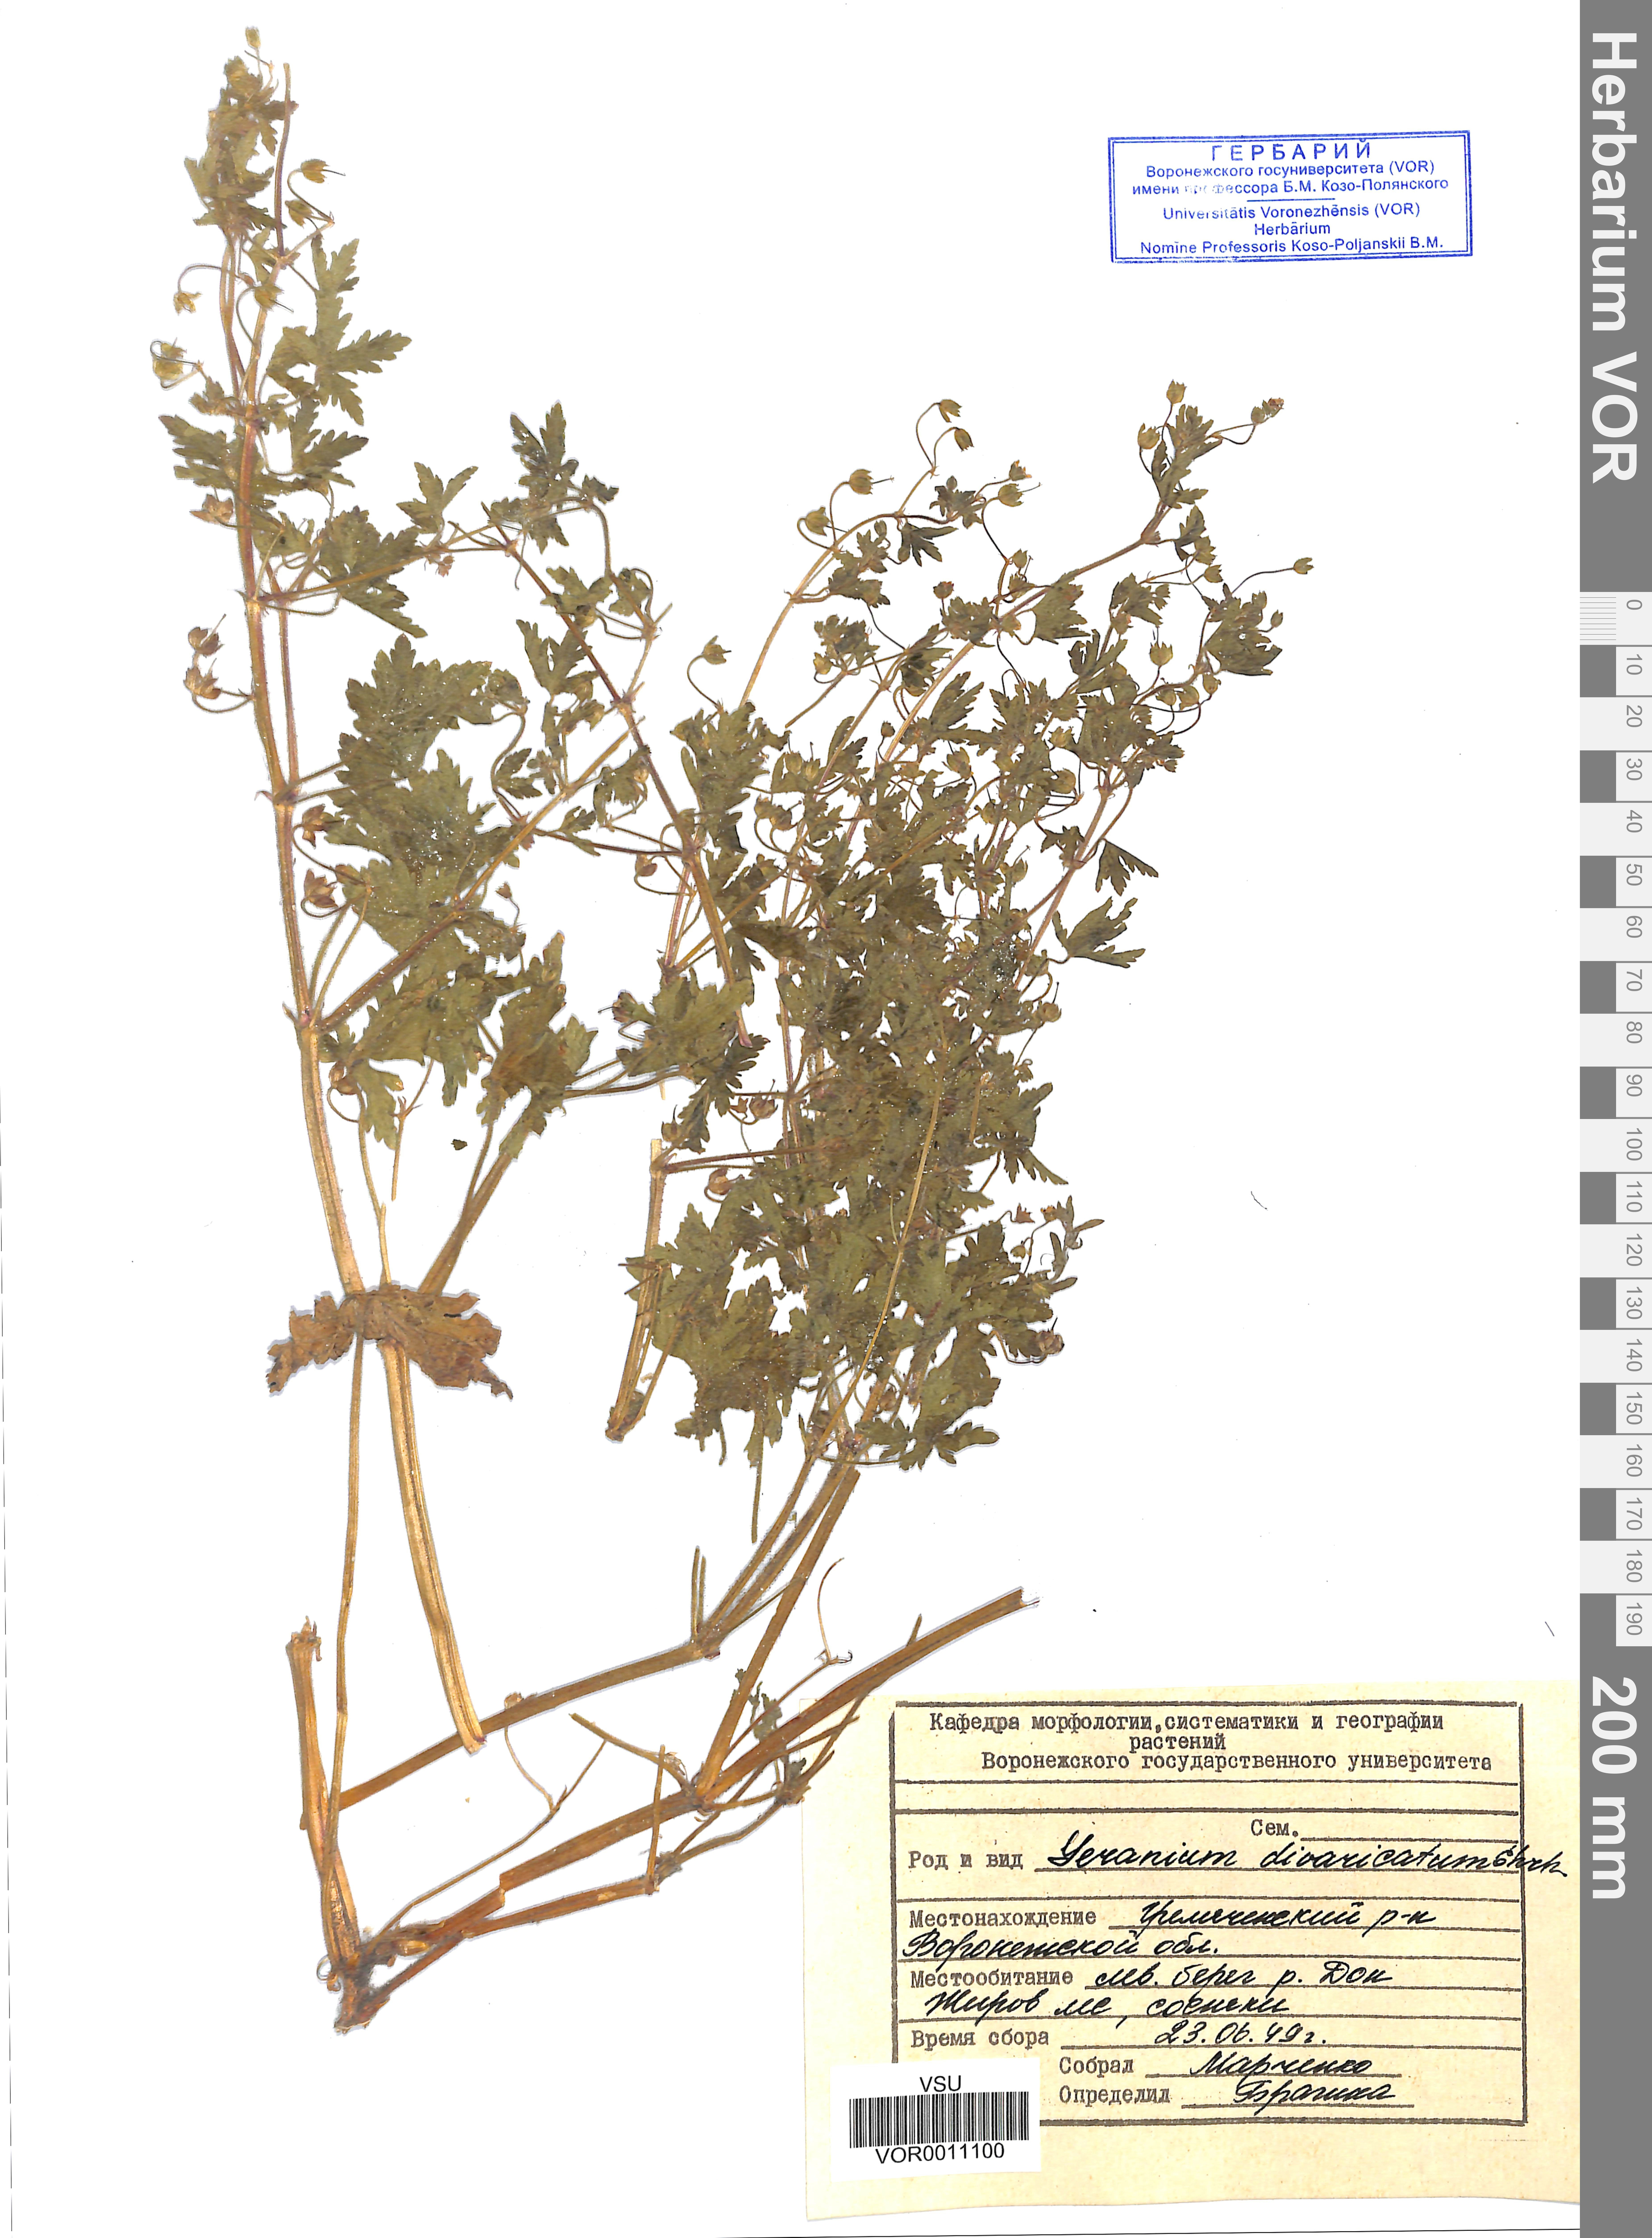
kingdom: Plantae
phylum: Tracheophyta
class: Magnoliopsida
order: Geraniales
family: Geraniaceae
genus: Geranium
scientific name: Geranium divaricatum
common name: Spreading crane's-bill
